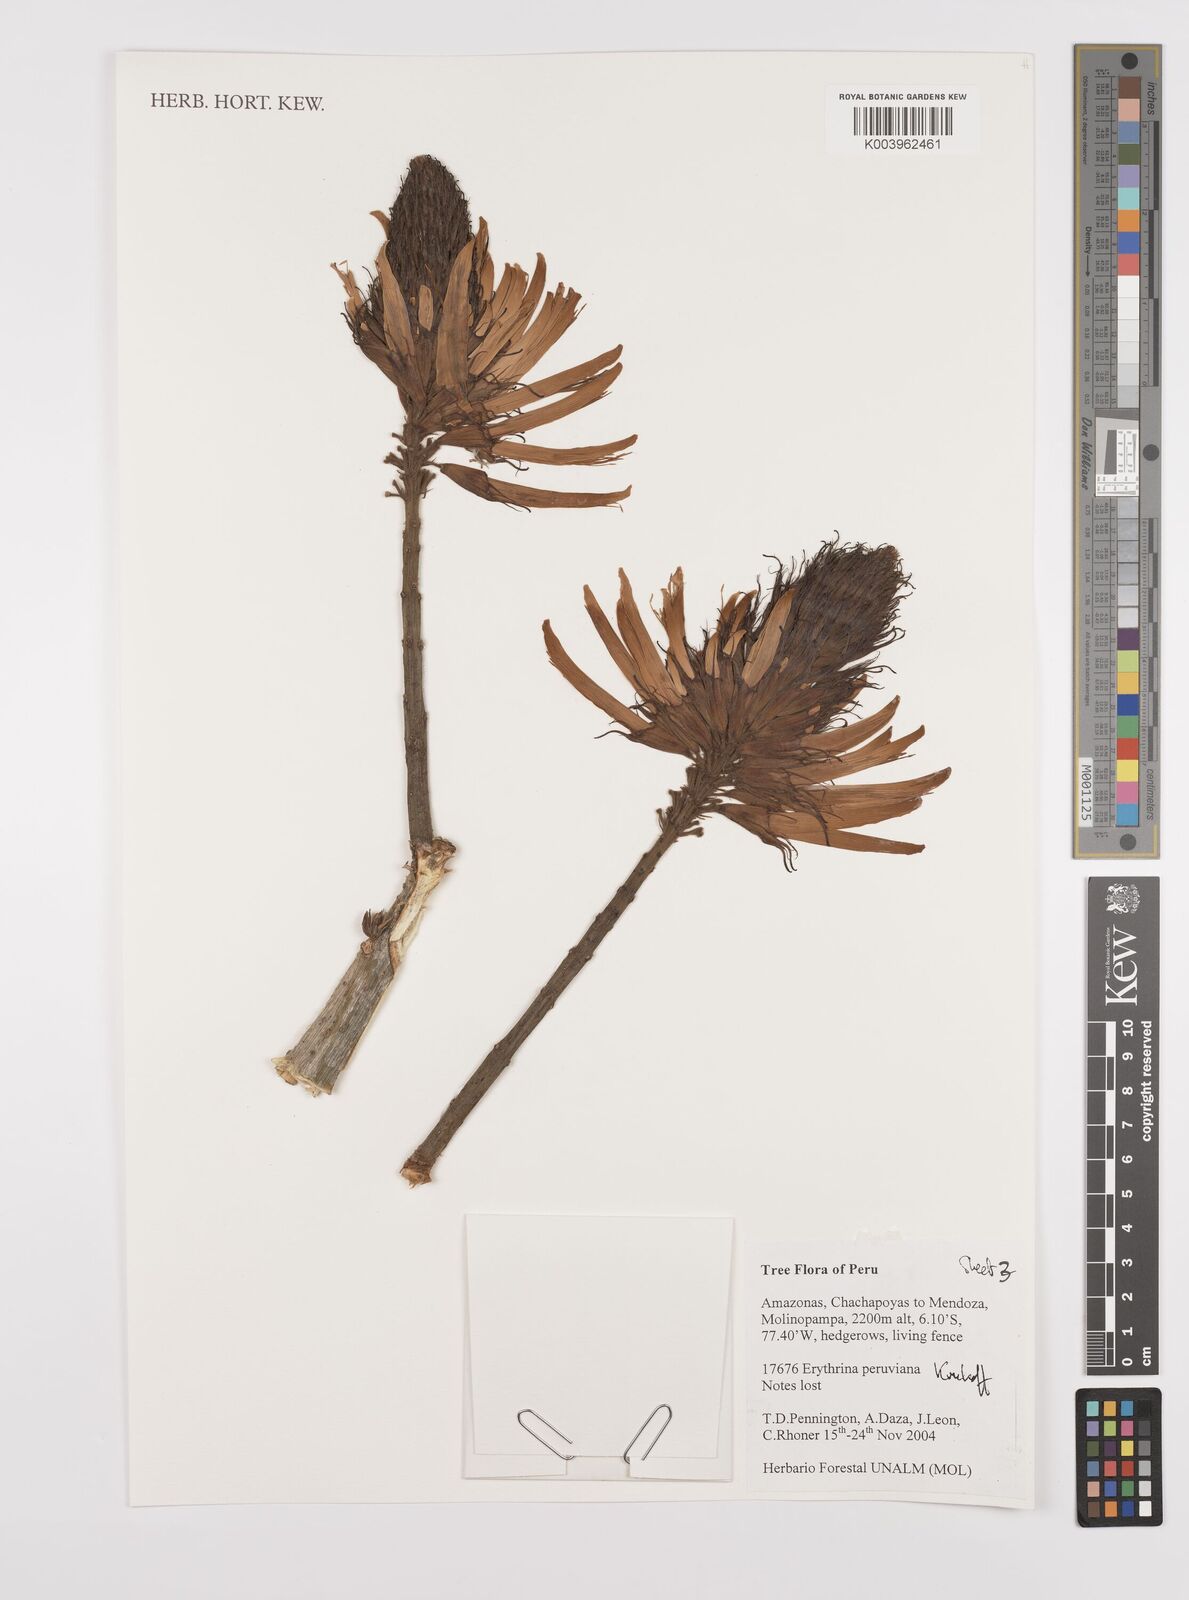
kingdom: Plantae
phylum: Tracheophyta
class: Magnoliopsida
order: Fabales
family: Fabaceae
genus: Erythrina
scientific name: Erythrina peruviana
